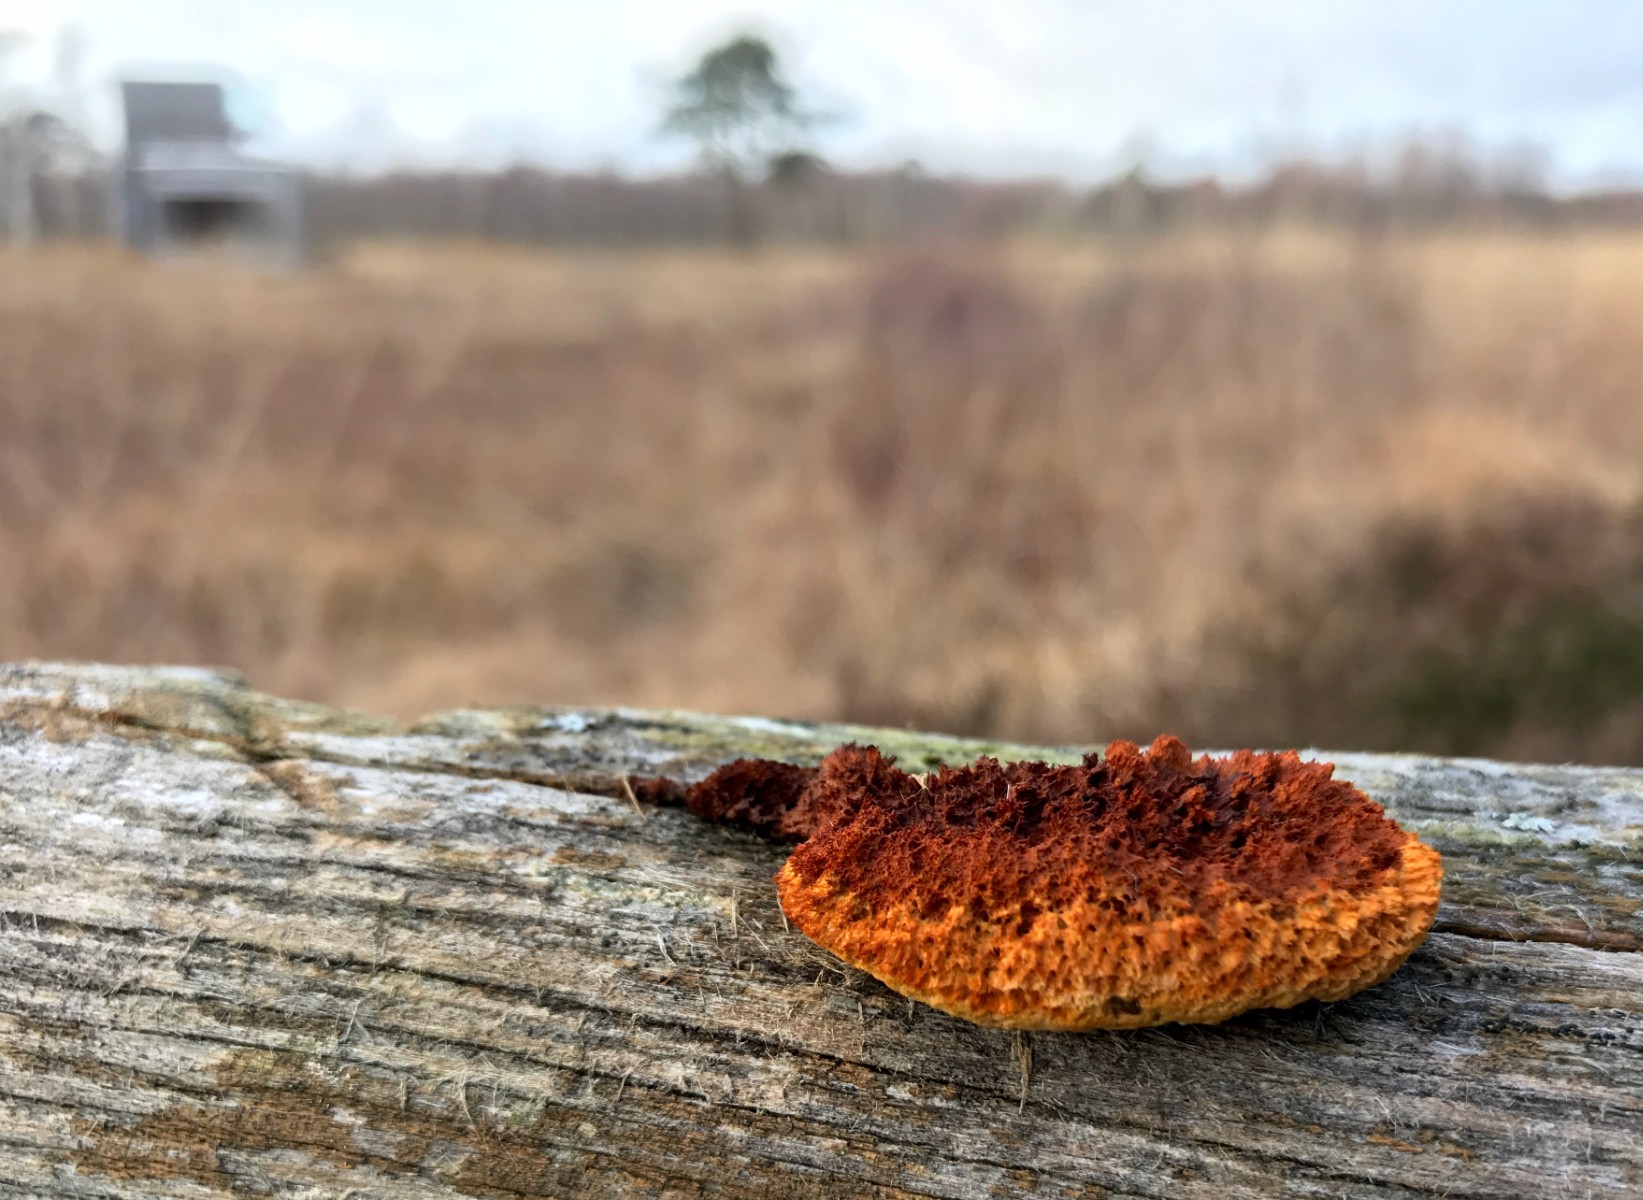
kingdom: Fungi
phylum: Basidiomycota
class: Agaricomycetes
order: Gloeophyllales
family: Gloeophyllaceae
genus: Gloeophyllum
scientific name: Gloeophyllum sepiarium
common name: fyrre-korkhat
